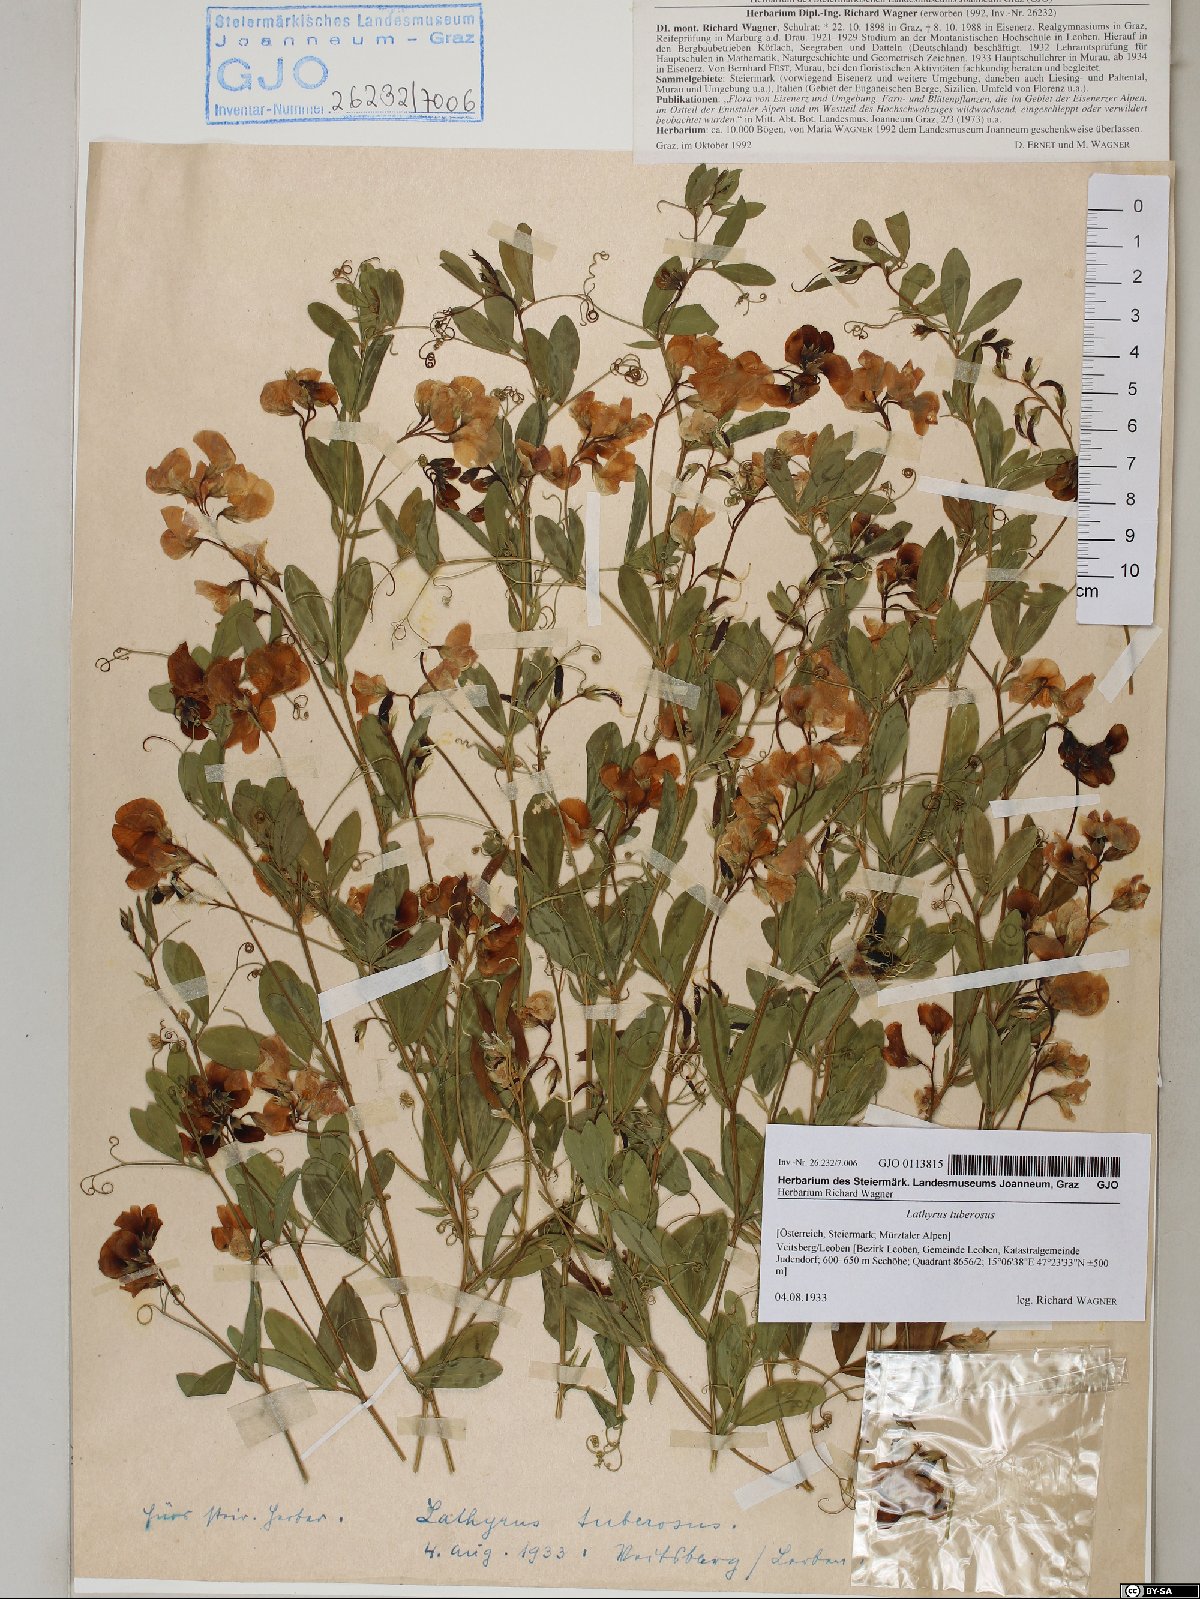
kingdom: Plantae
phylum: Tracheophyta
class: Magnoliopsida
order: Fabales
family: Fabaceae
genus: Lathyrus
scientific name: Lathyrus tuberosus
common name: Tuberous pea
